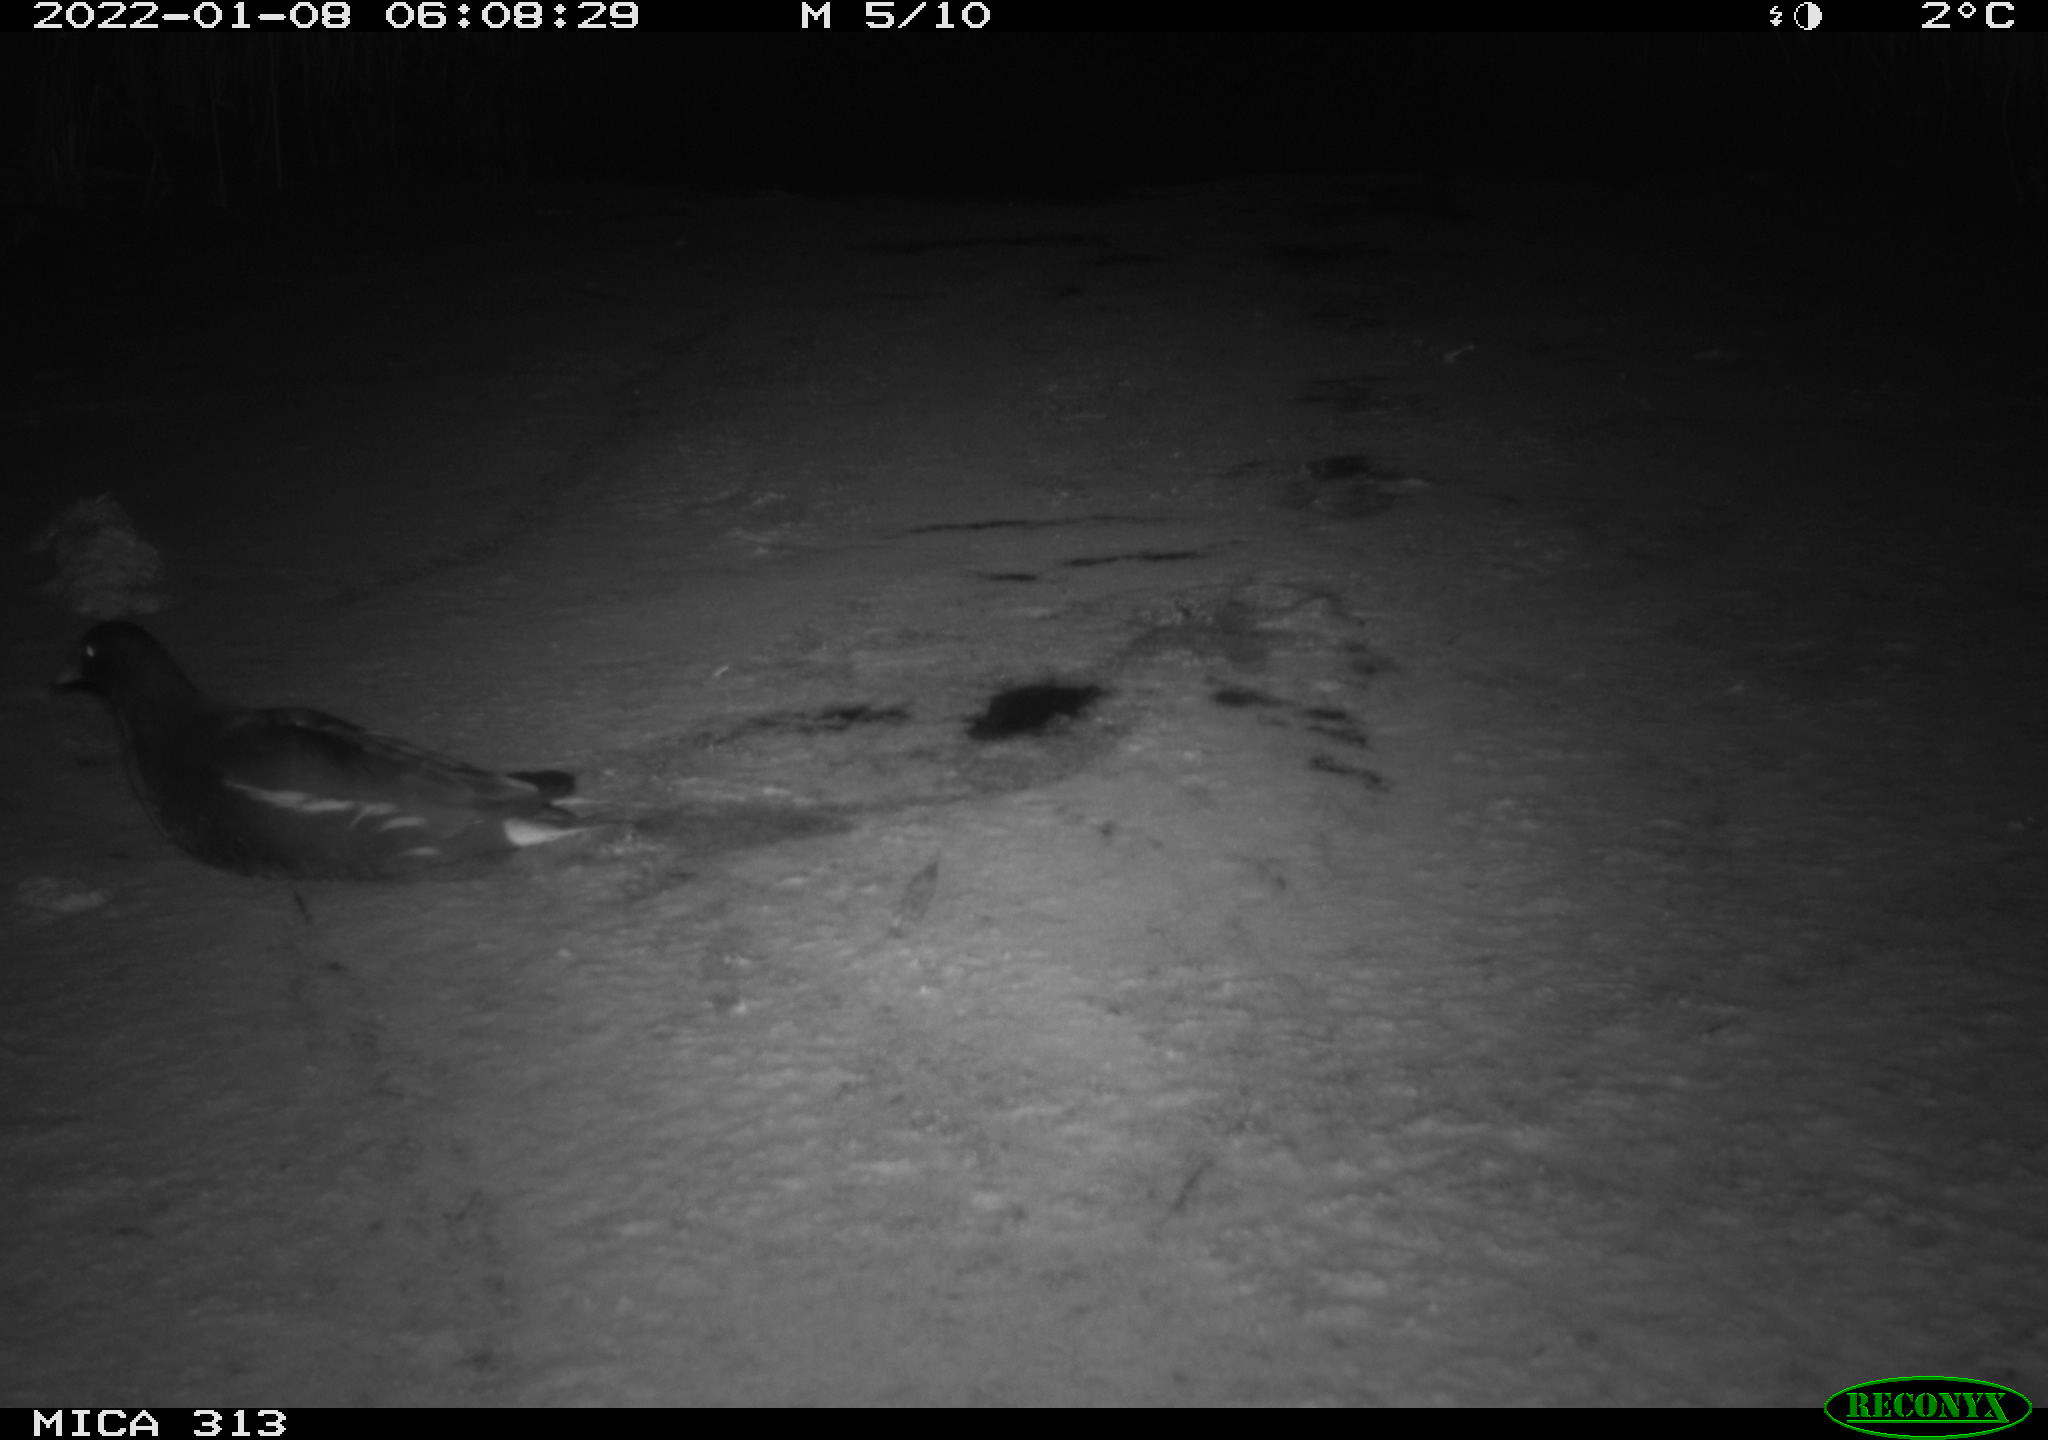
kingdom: Animalia
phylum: Chordata
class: Aves
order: Gruiformes
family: Rallidae
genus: Gallinula
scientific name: Gallinula chloropus
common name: Common moorhen
